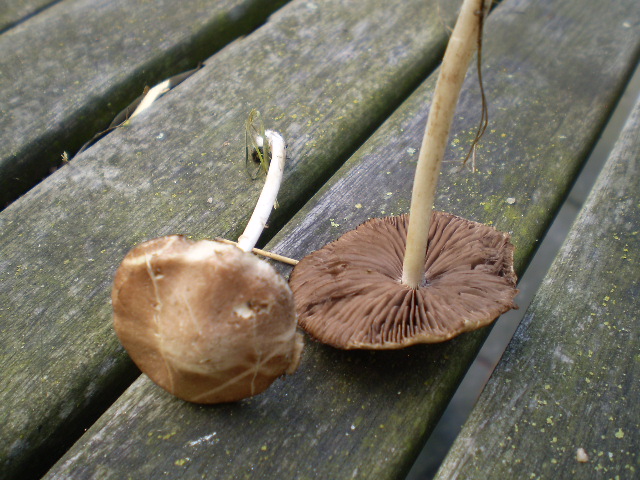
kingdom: Fungi
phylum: Basidiomycota
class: Agaricomycetes
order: Agaricales
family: Psathyrellaceae
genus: Psathyrella
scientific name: Psathyrella spadiceogrisea
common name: gråbrun mørkhat
